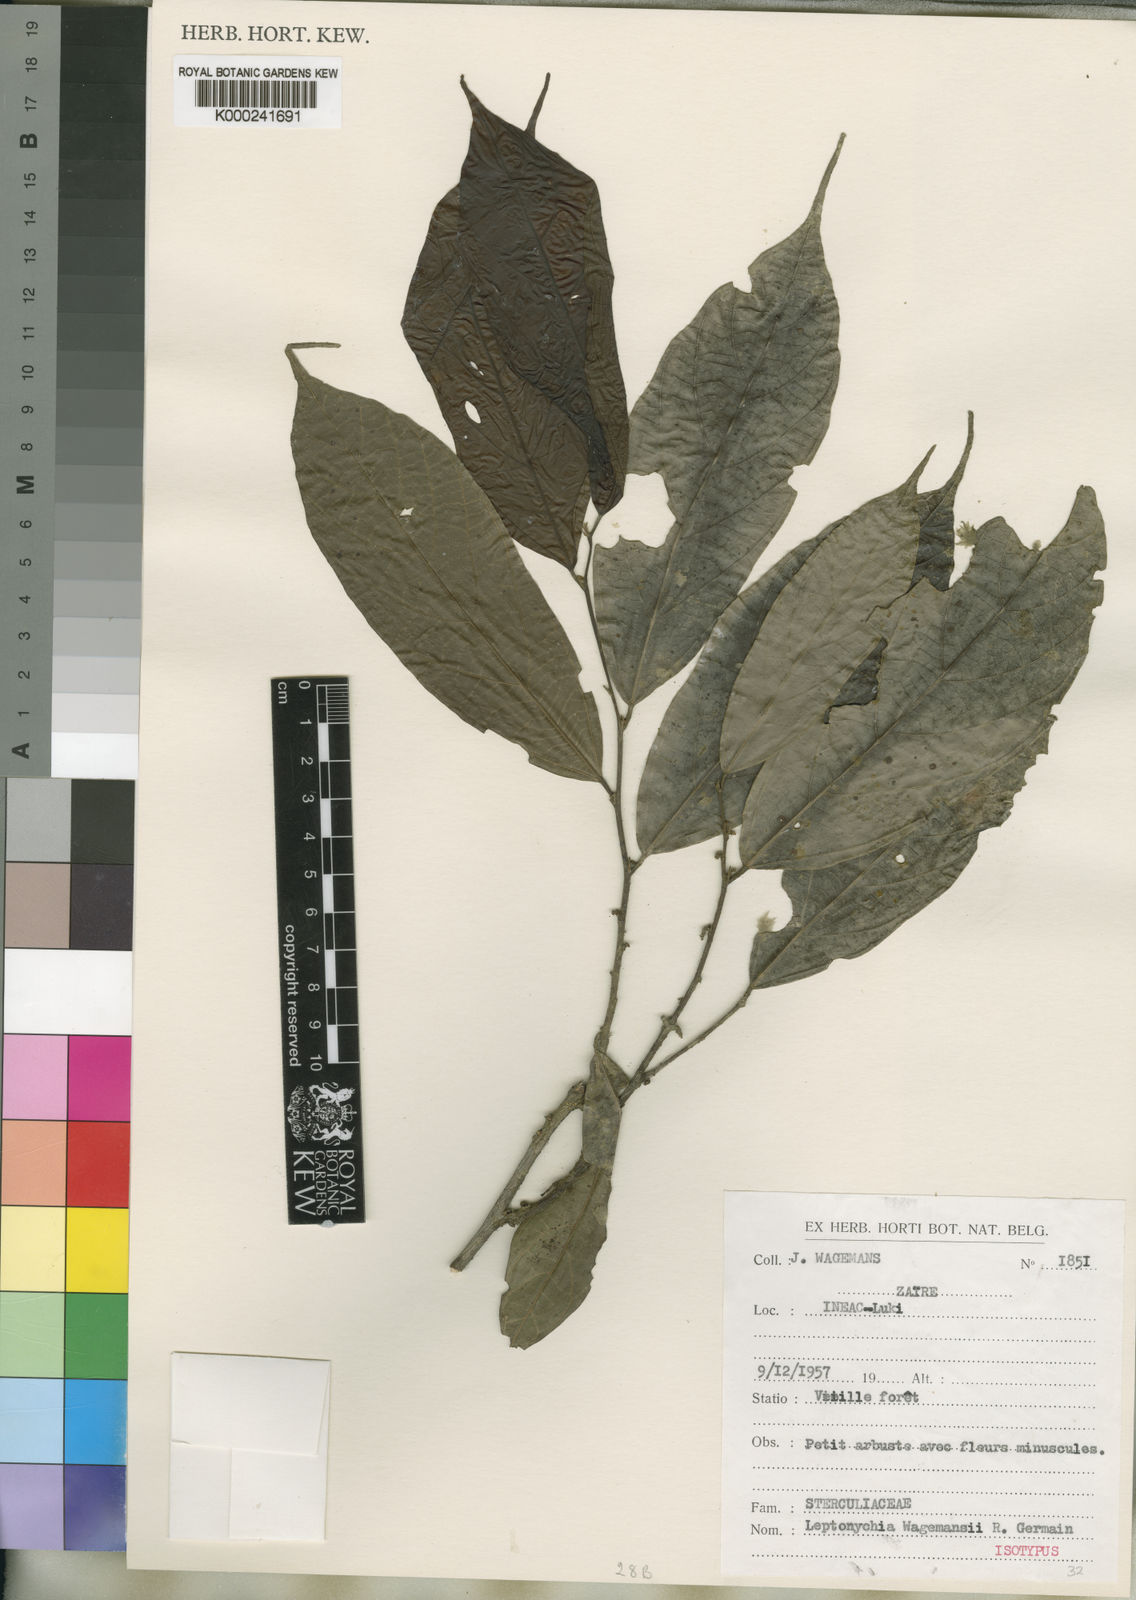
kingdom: Plantae
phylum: Tracheophyta
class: Magnoliopsida
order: Malvales
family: Malvaceae
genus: Leptonychia
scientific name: Leptonychia wagemansii
